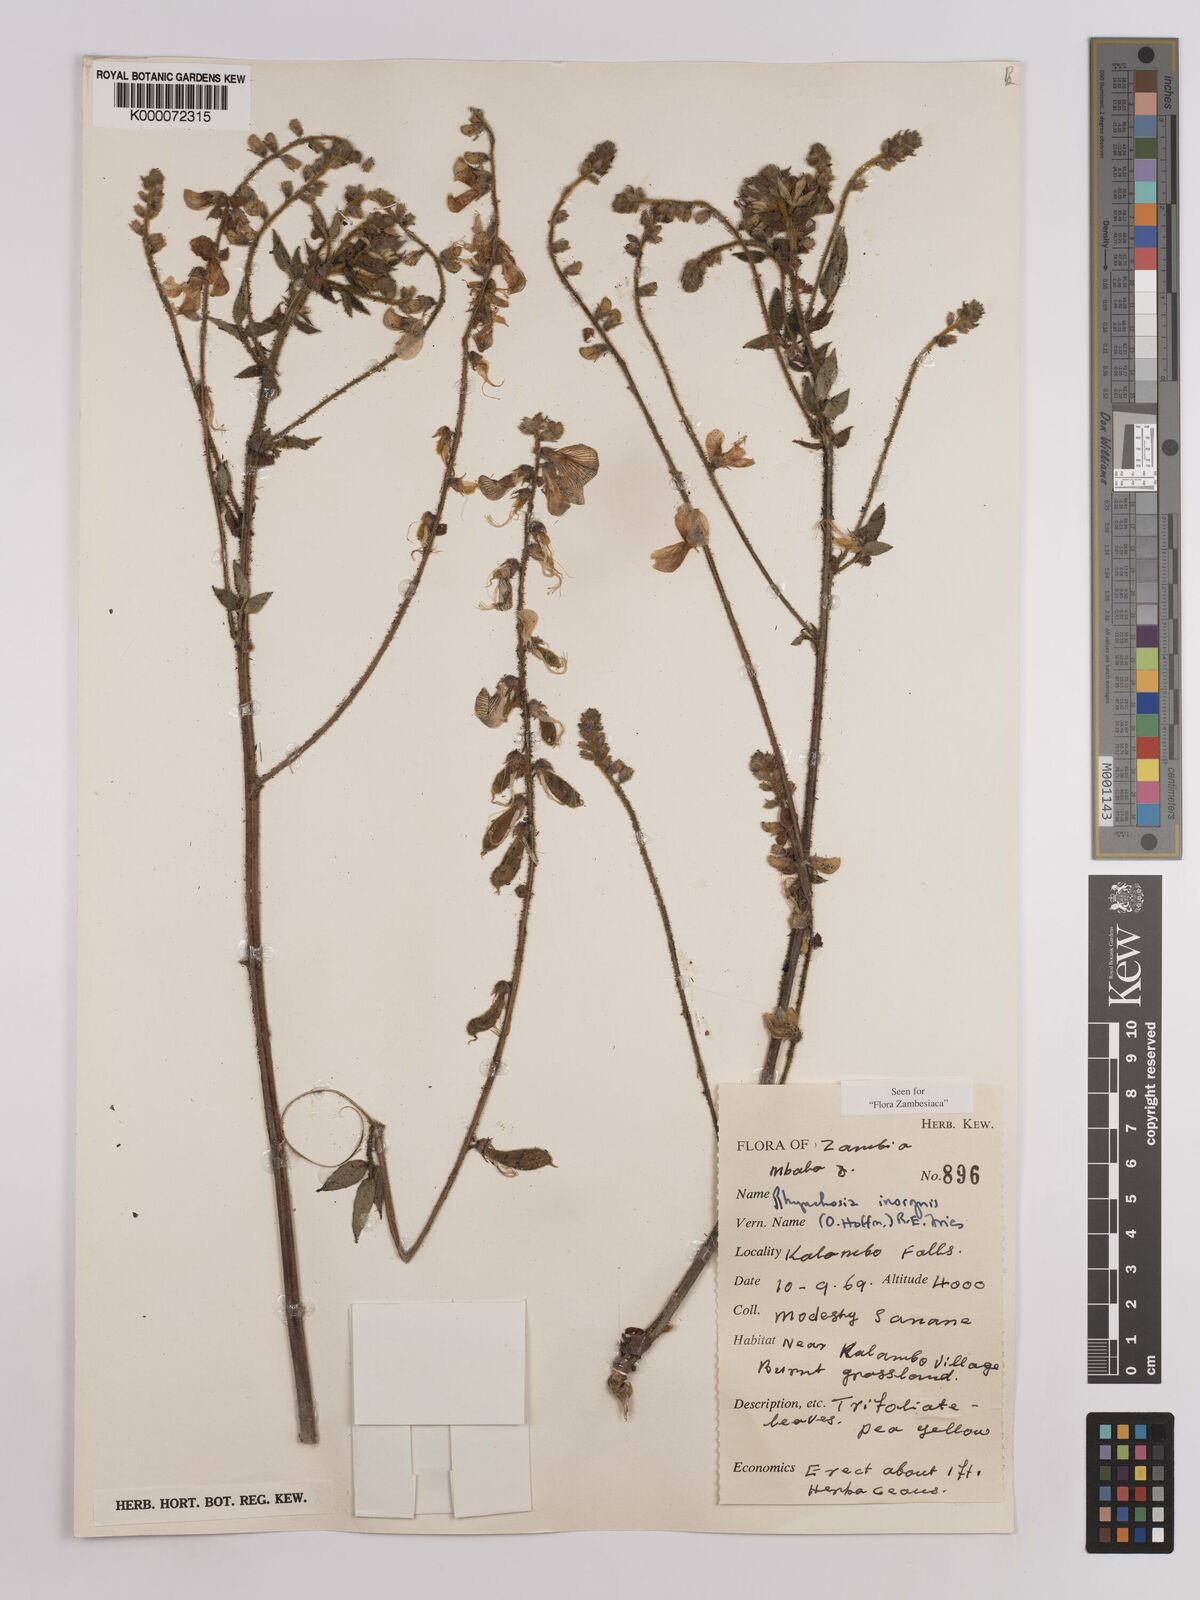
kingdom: Plantae
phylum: Tracheophyta
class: Magnoliopsida
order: Fabales
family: Fabaceae
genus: Rhynchosia
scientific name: Rhynchosia insignis
